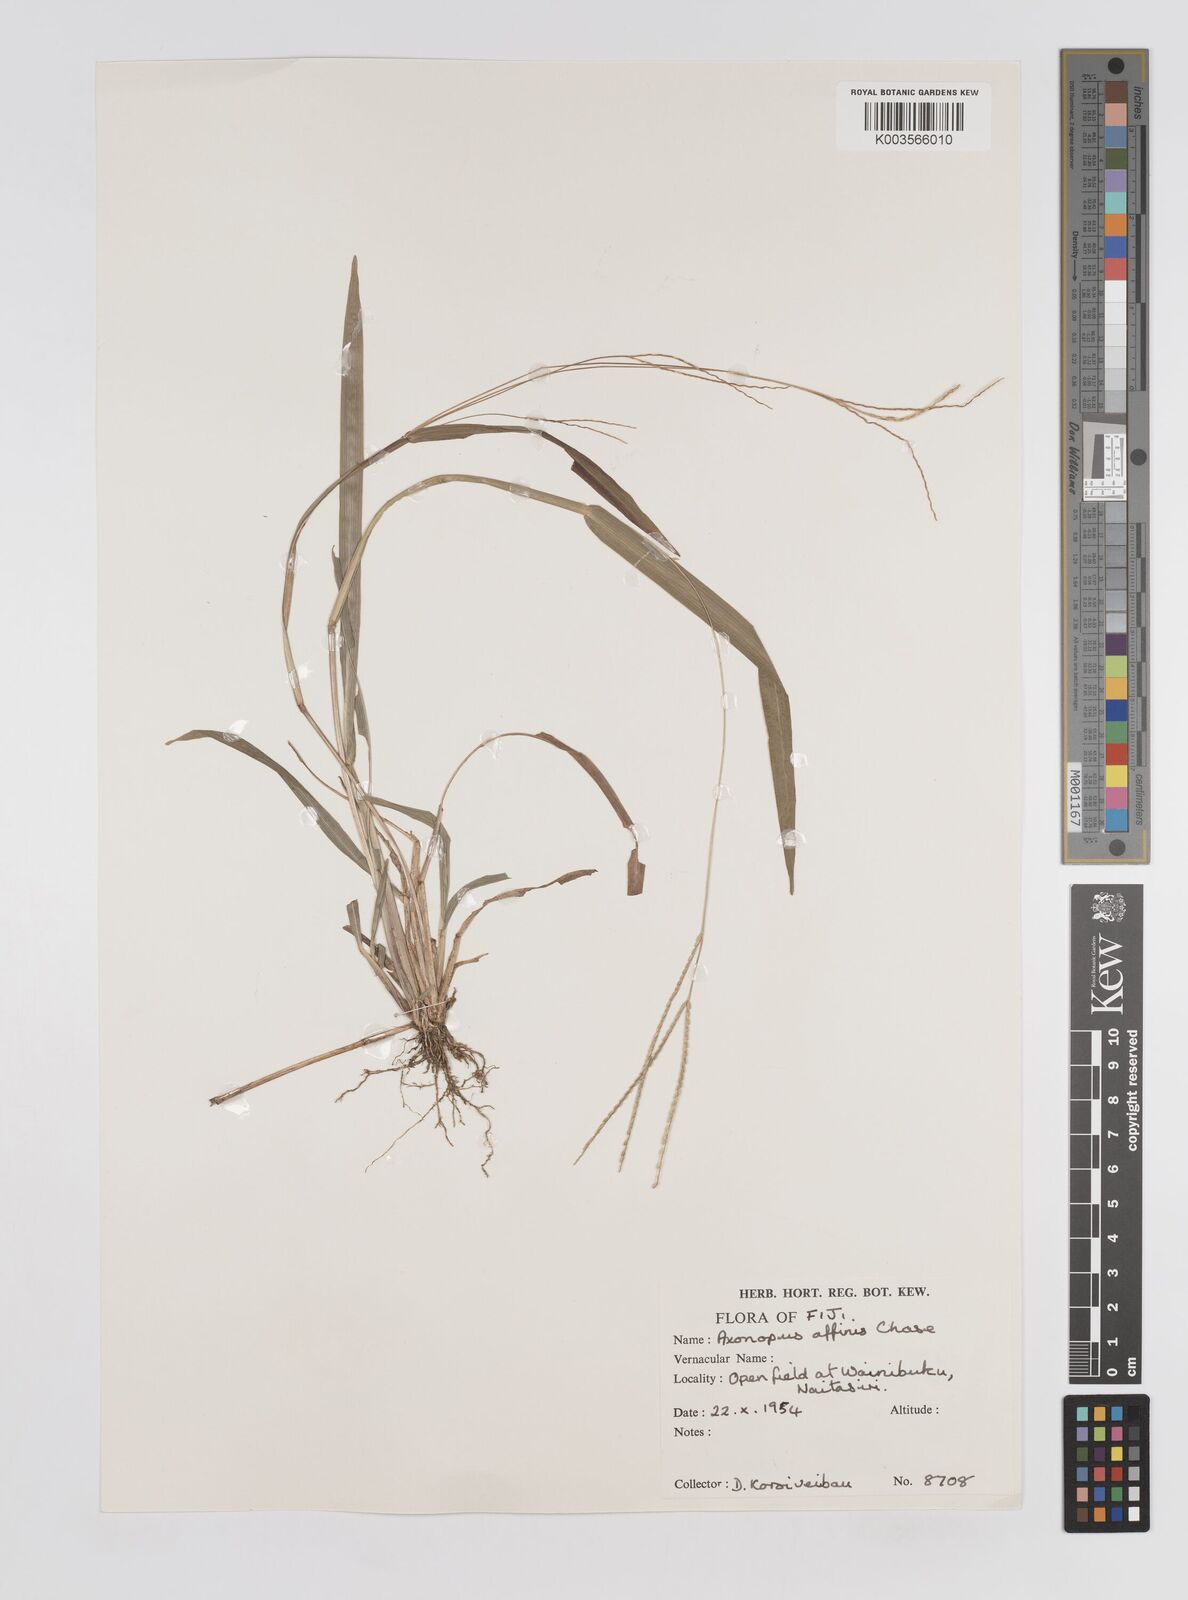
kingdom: Plantae
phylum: Tracheophyta
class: Liliopsida
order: Poales
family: Poaceae
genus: Axonopus
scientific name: Axonopus compressus
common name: American carpet grass
